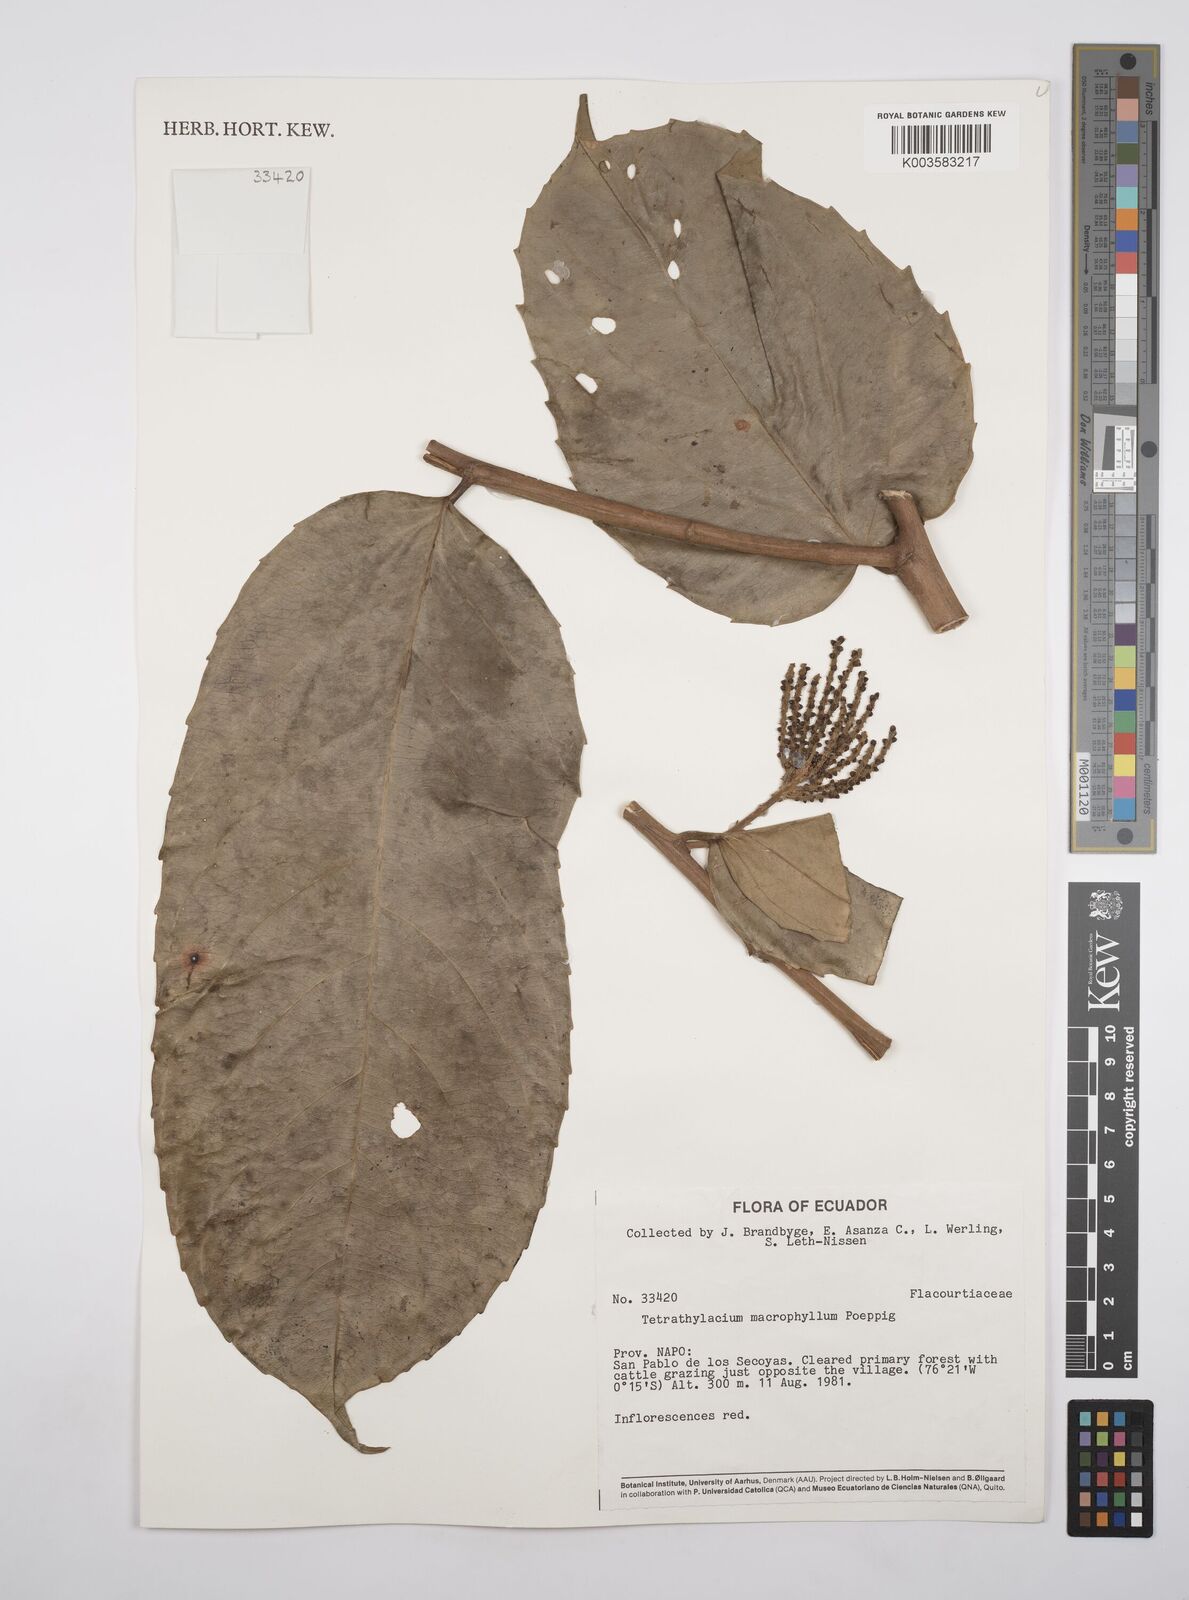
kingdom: Plantae
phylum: Tracheophyta
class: Magnoliopsida
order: Malpighiales
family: Salicaceae
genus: Tetrathylacium
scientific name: Tetrathylacium macrophyllum
